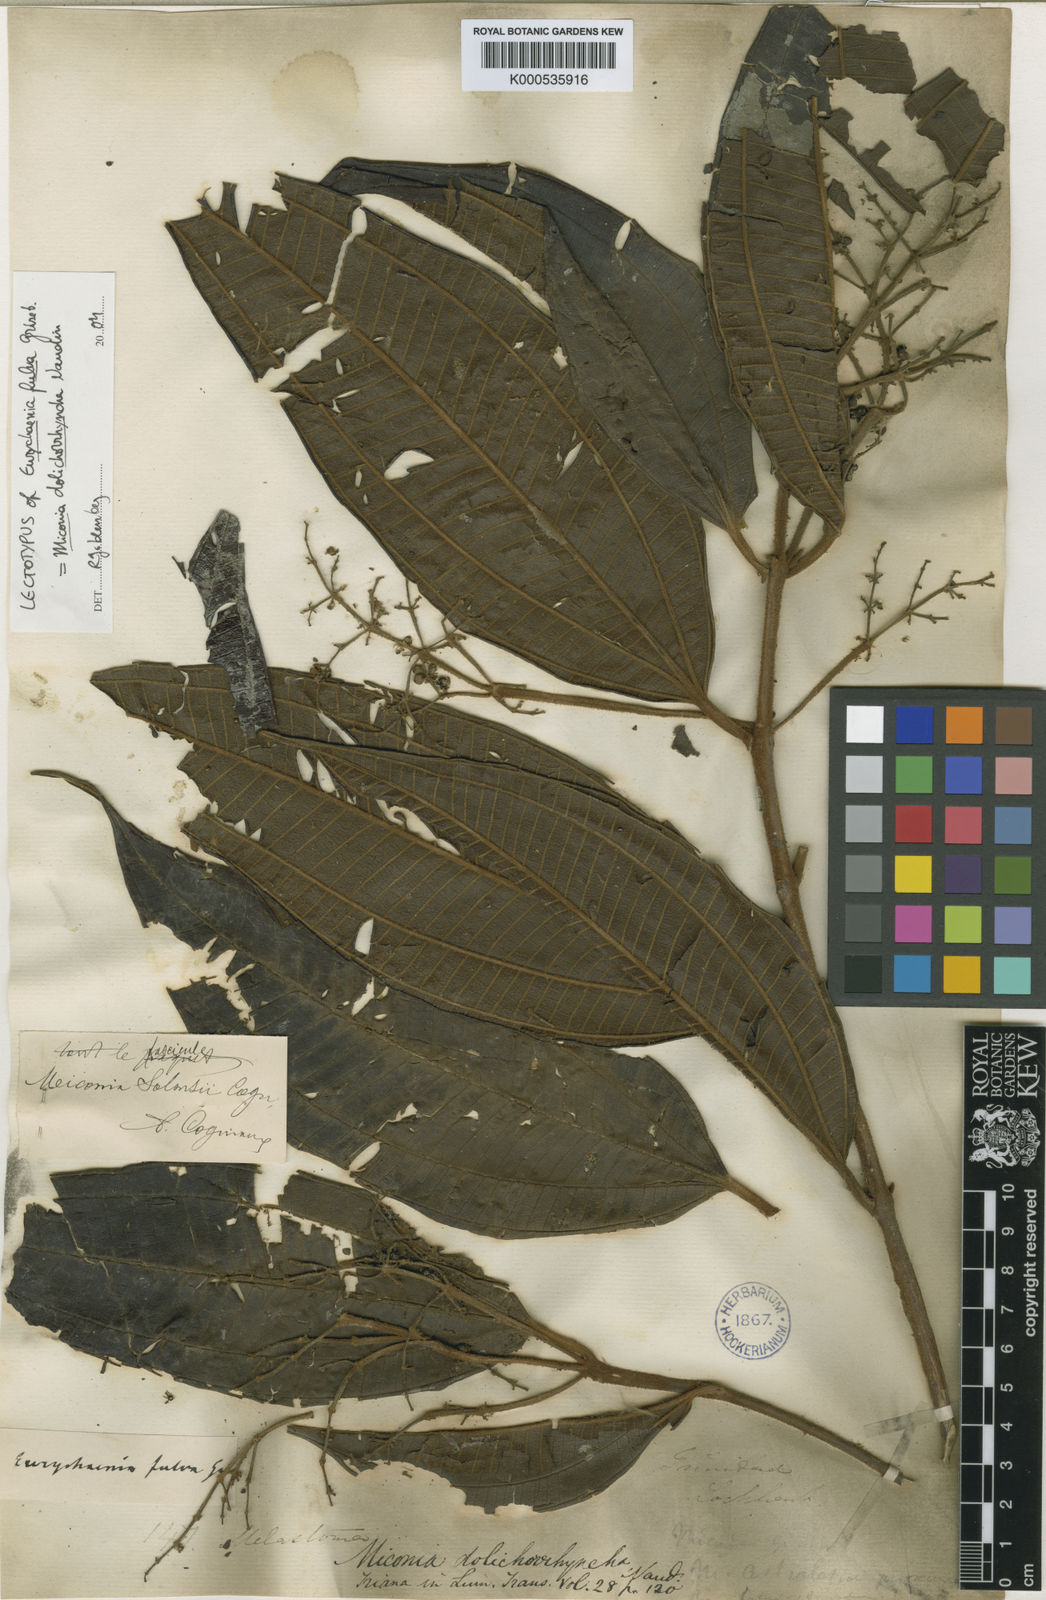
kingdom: Plantae
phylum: Tracheophyta
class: Magnoliopsida
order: Myrtales
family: Melastomataceae
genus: Miconia
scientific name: Miconia dolichorrhyncha
